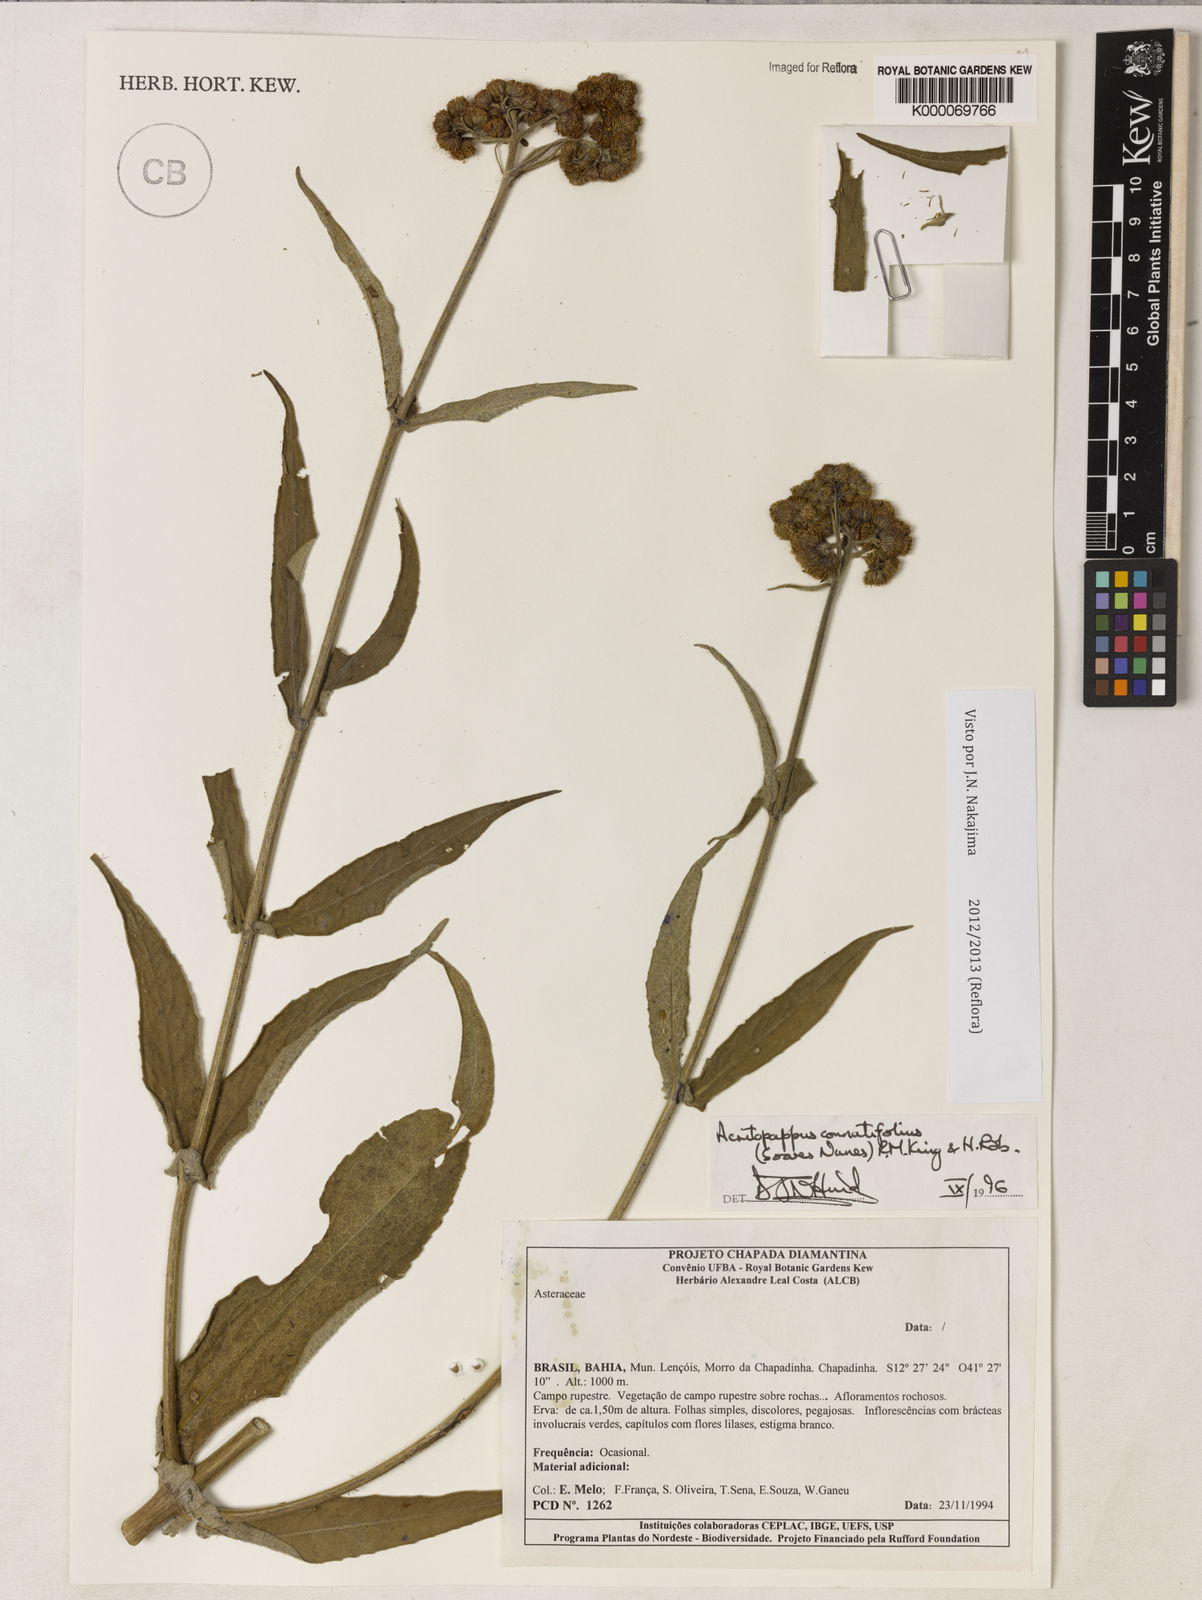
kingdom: Plantae
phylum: Tracheophyta
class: Magnoliopsida
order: Asterales
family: Asteraceae
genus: Acritopappus
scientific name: Acritopappus connatifolius
